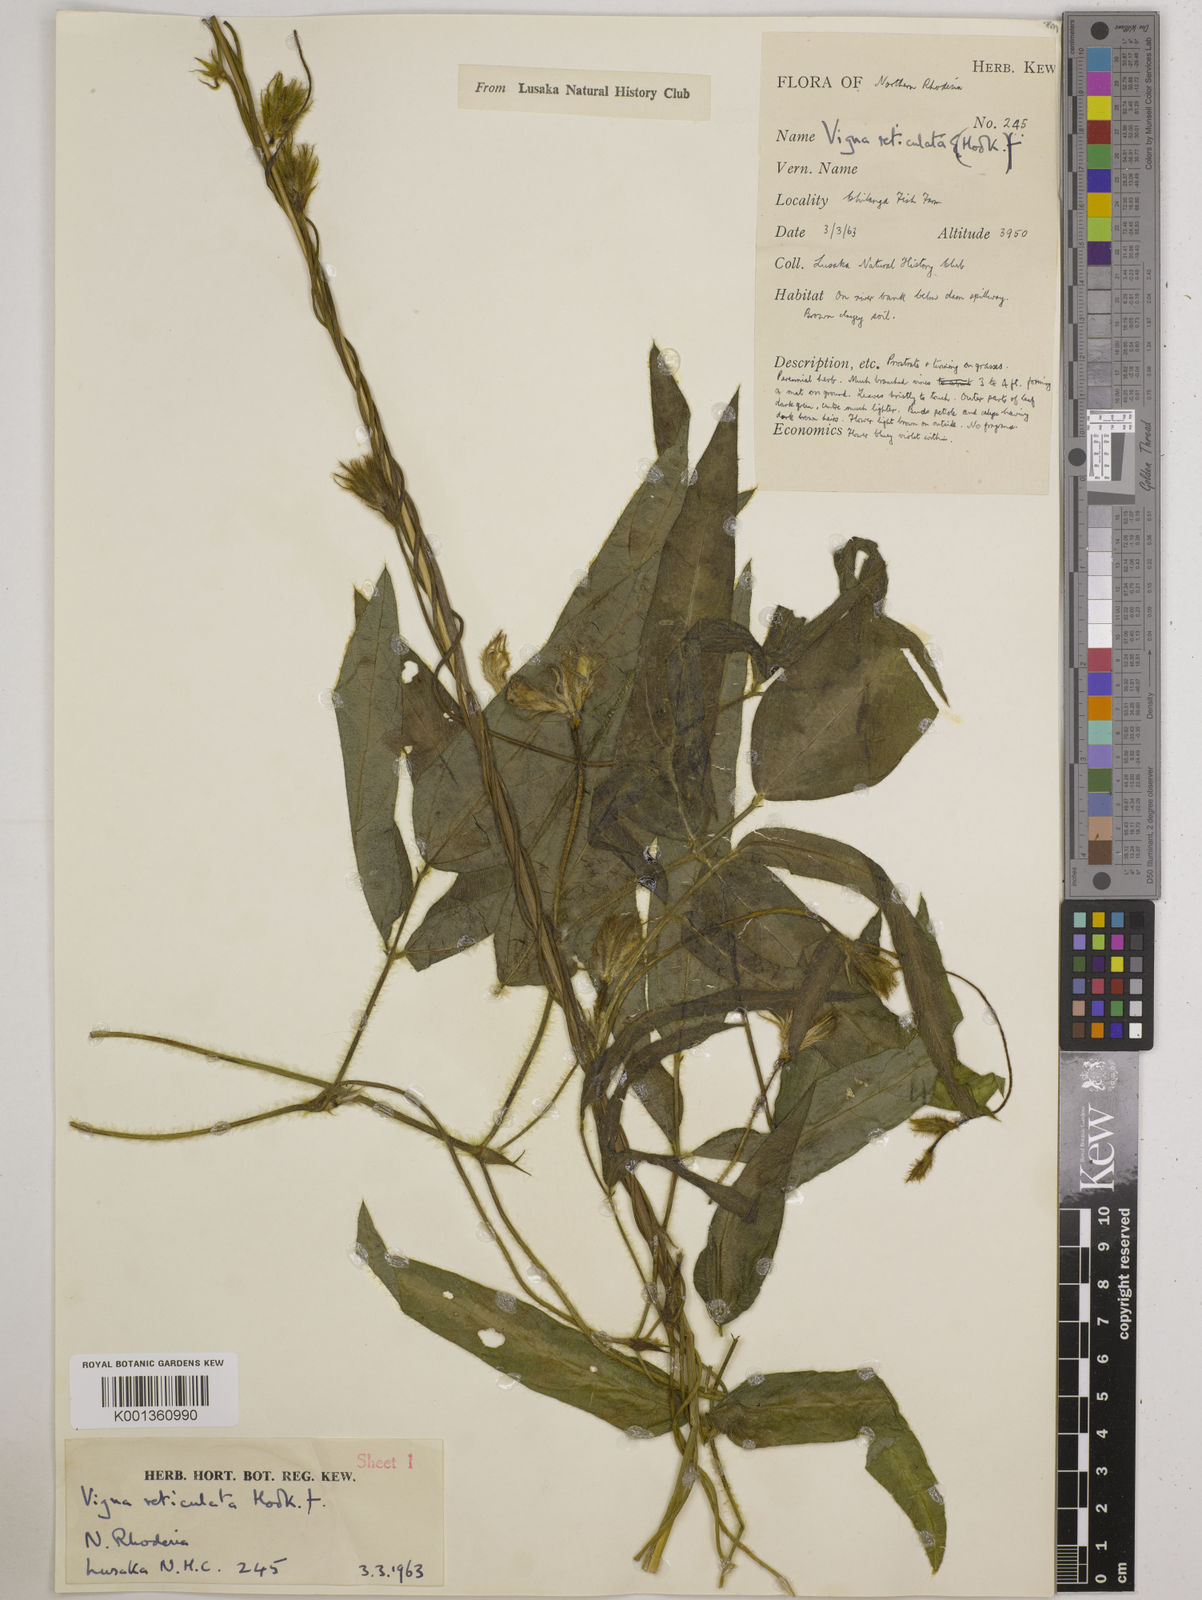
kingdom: Plantae
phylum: Tracheophyta
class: Magnoliopsida
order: Fabales
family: Fabaceae
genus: Vigna
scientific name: Vigna reticulata
